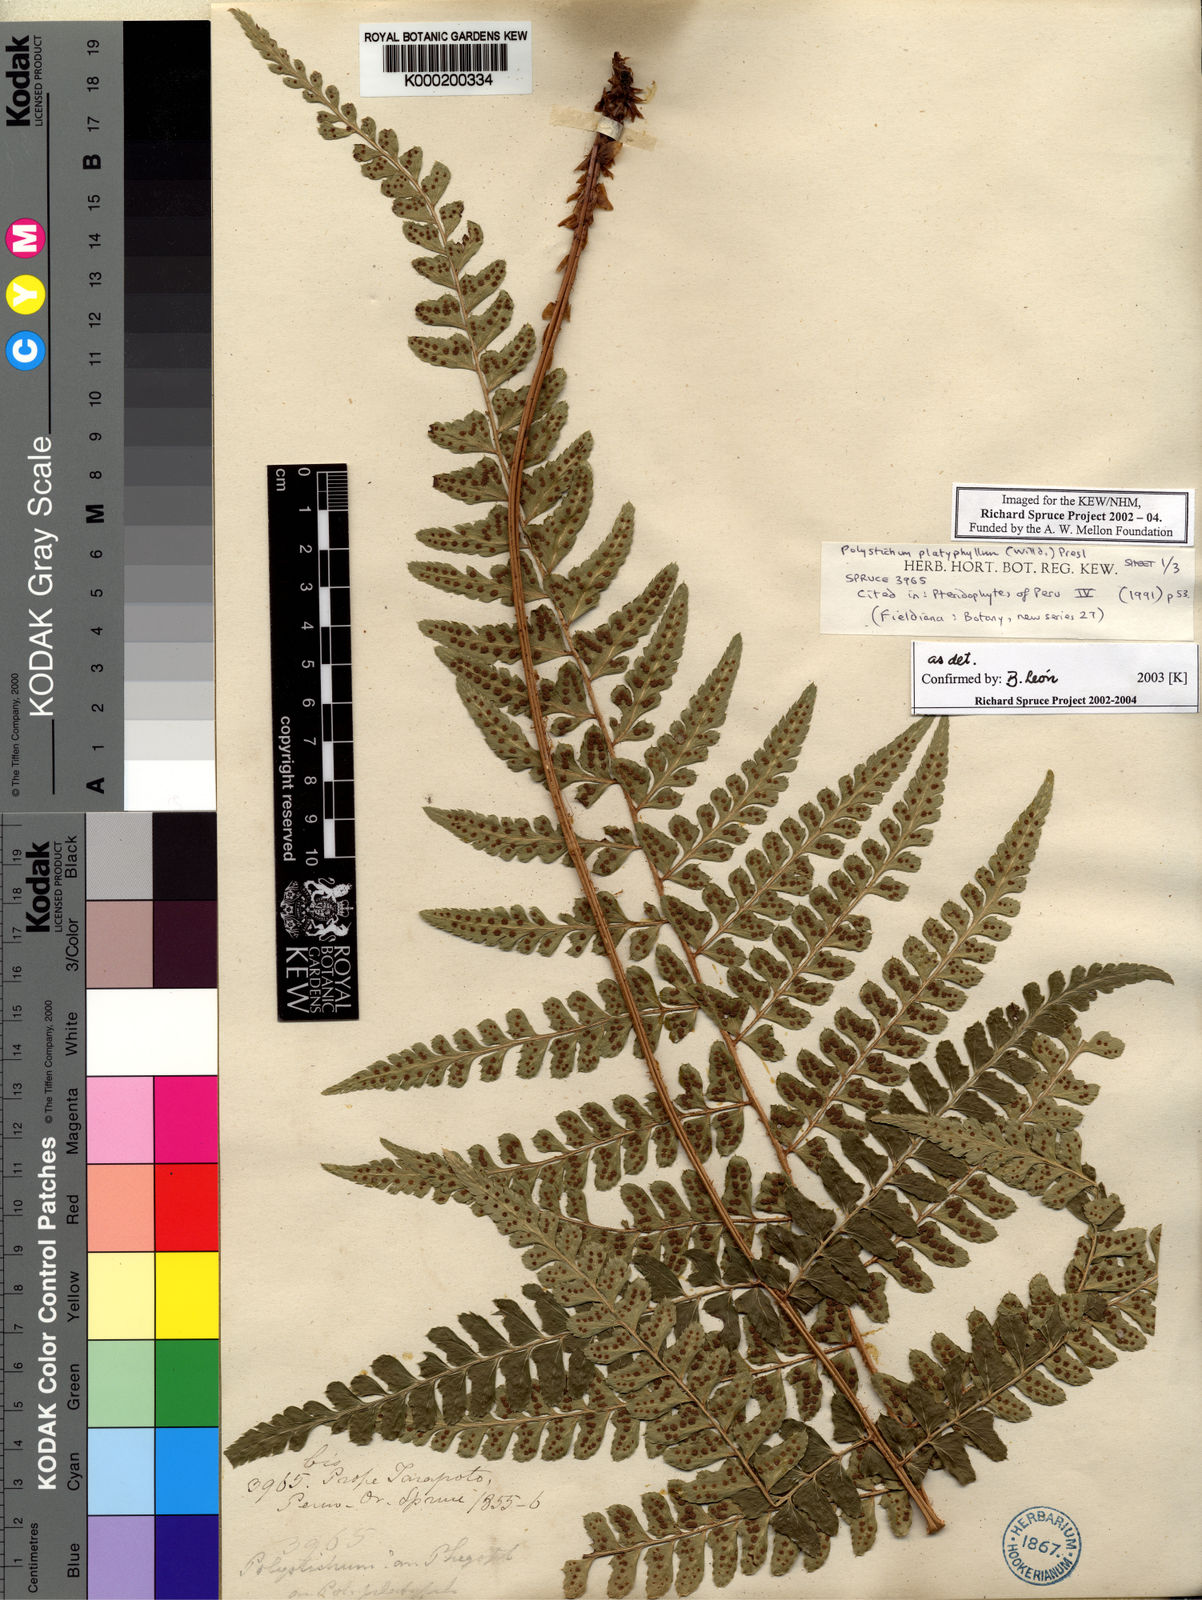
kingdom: Plantae
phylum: Tracheophyta
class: Polypodiopsida
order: Polypodiales
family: Dryopteridaceae
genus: Polystichum
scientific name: Polystichum platyphyllum
